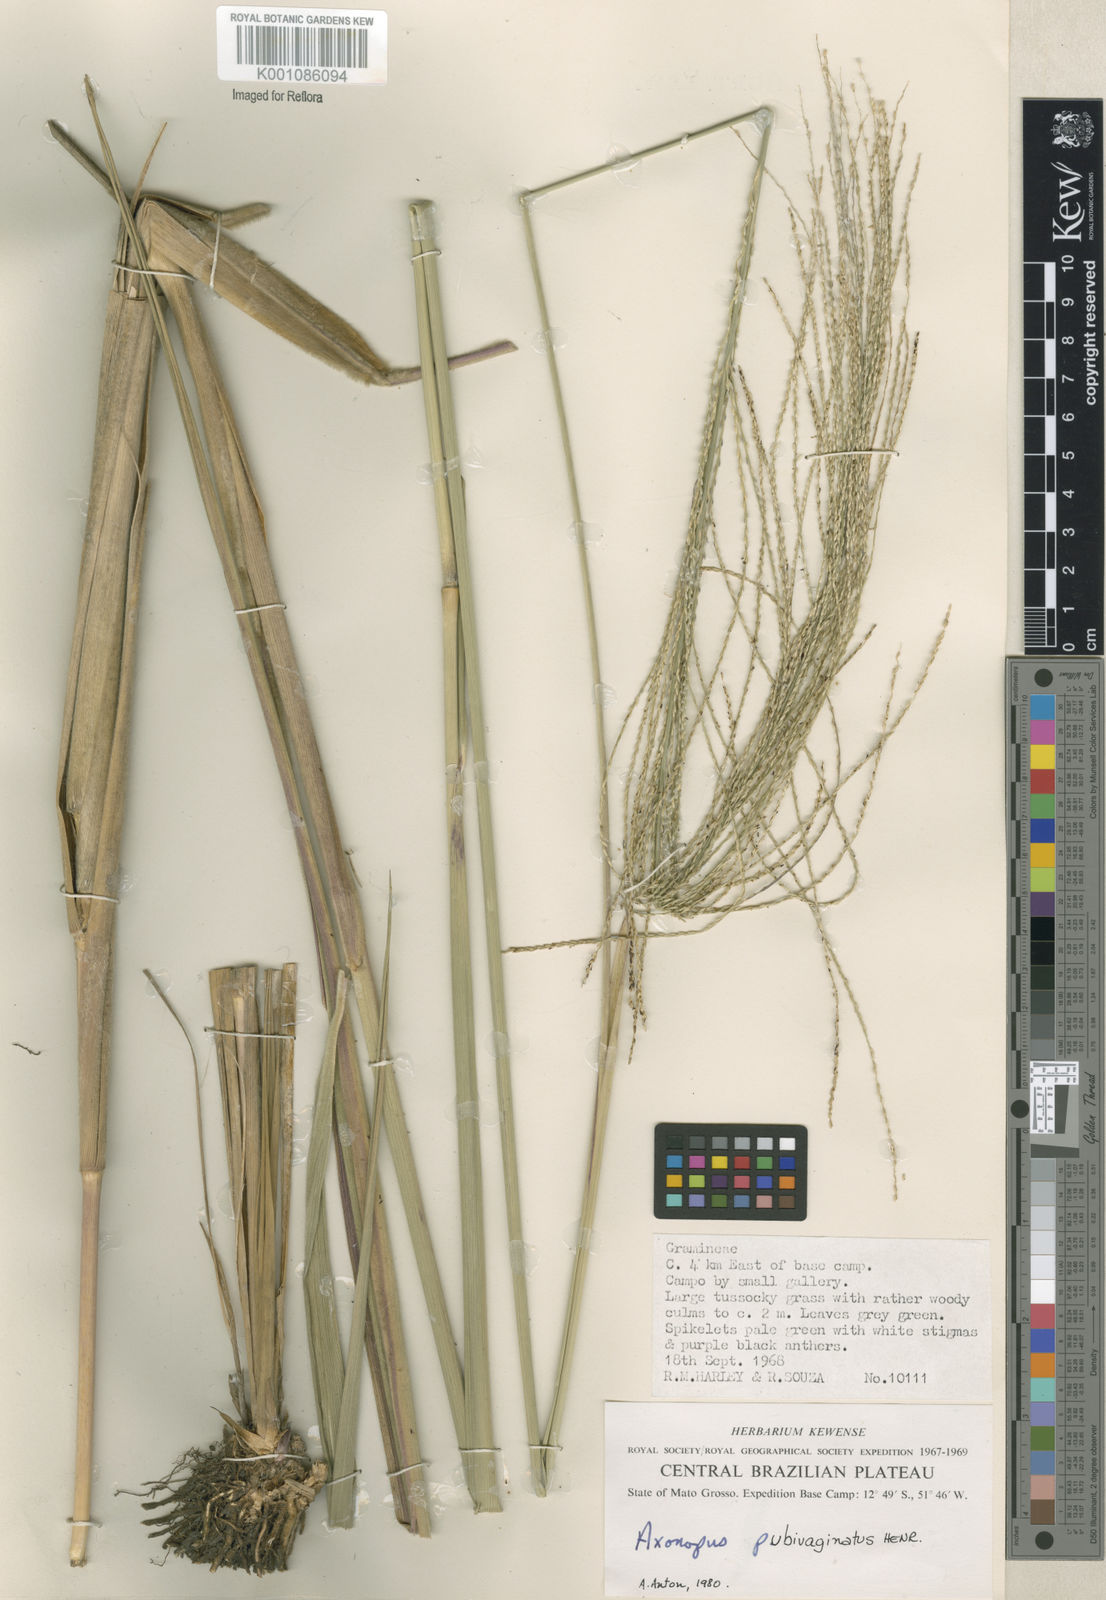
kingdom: Plantae
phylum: Tracheophyta
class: Liliopsida
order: Poales
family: Poaceae
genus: Axonopus
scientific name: Axonopus pubivaginatus
